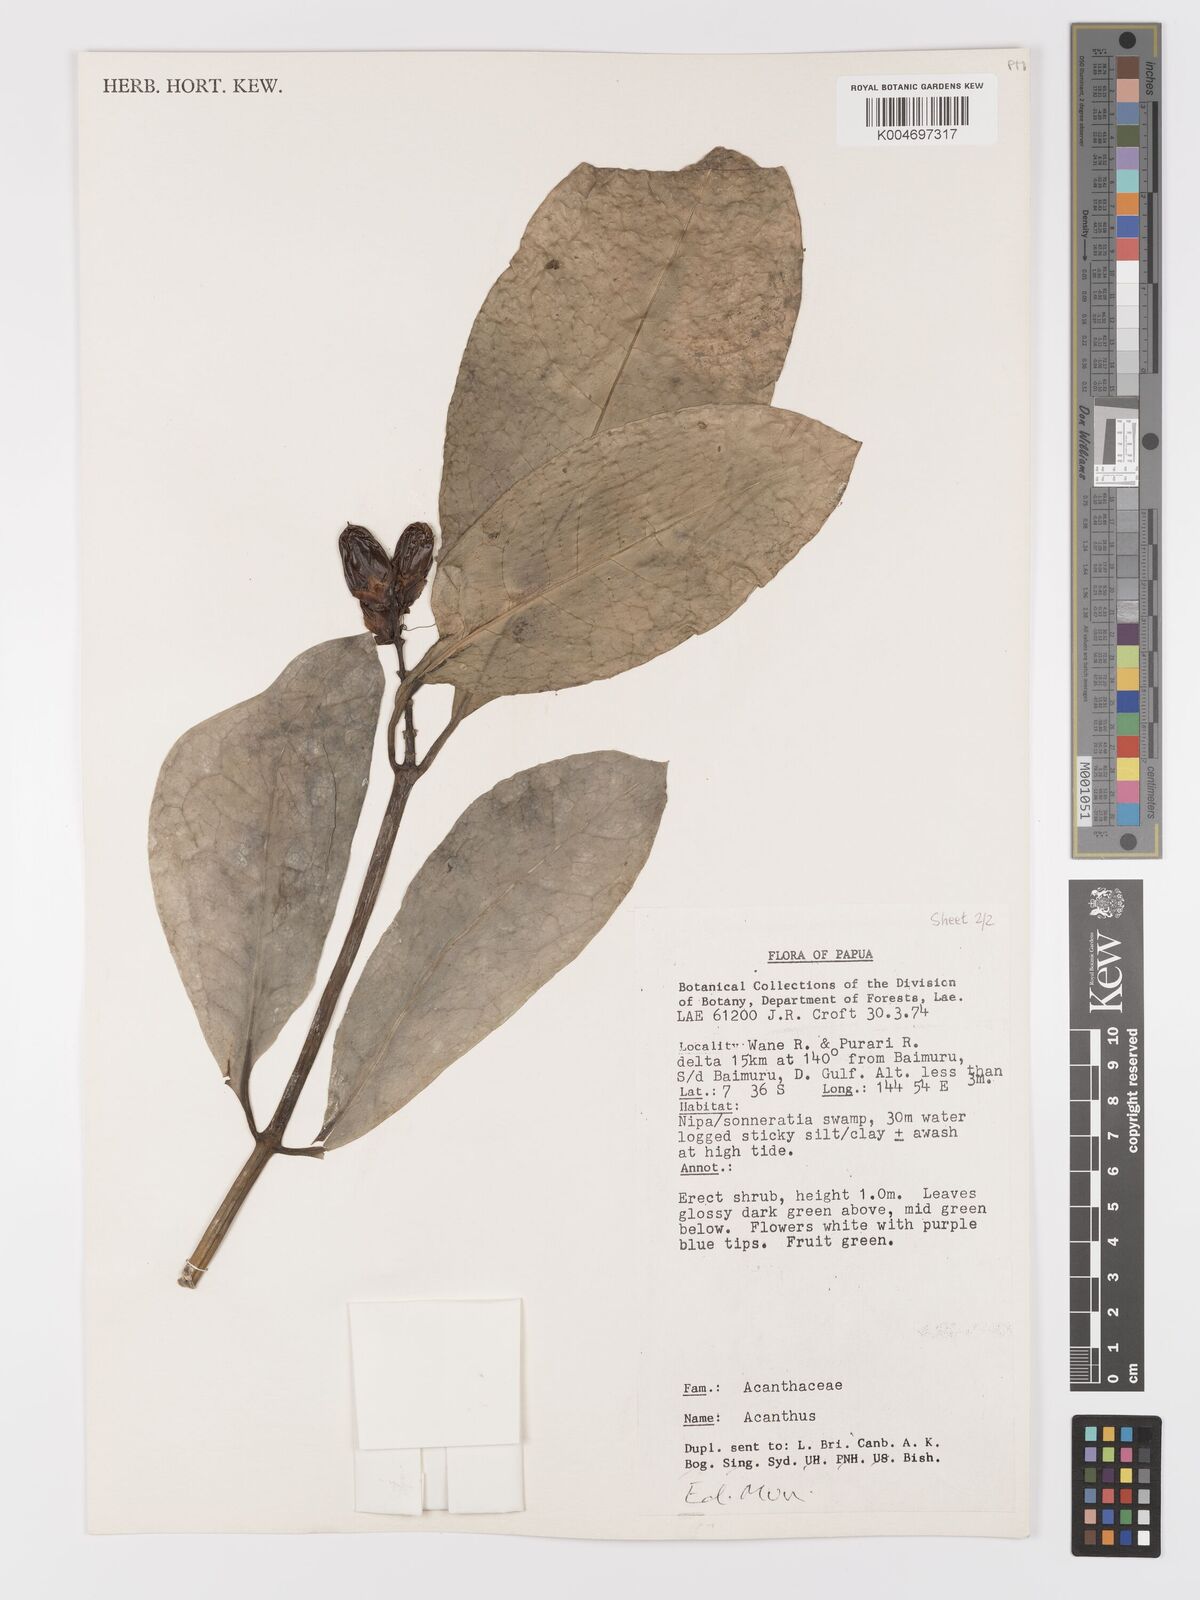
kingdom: Plantae
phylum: Tracheophyta
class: Magnoliopsida
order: Lamiales
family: Acanthaceae
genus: Acanthus
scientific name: Acanthus
